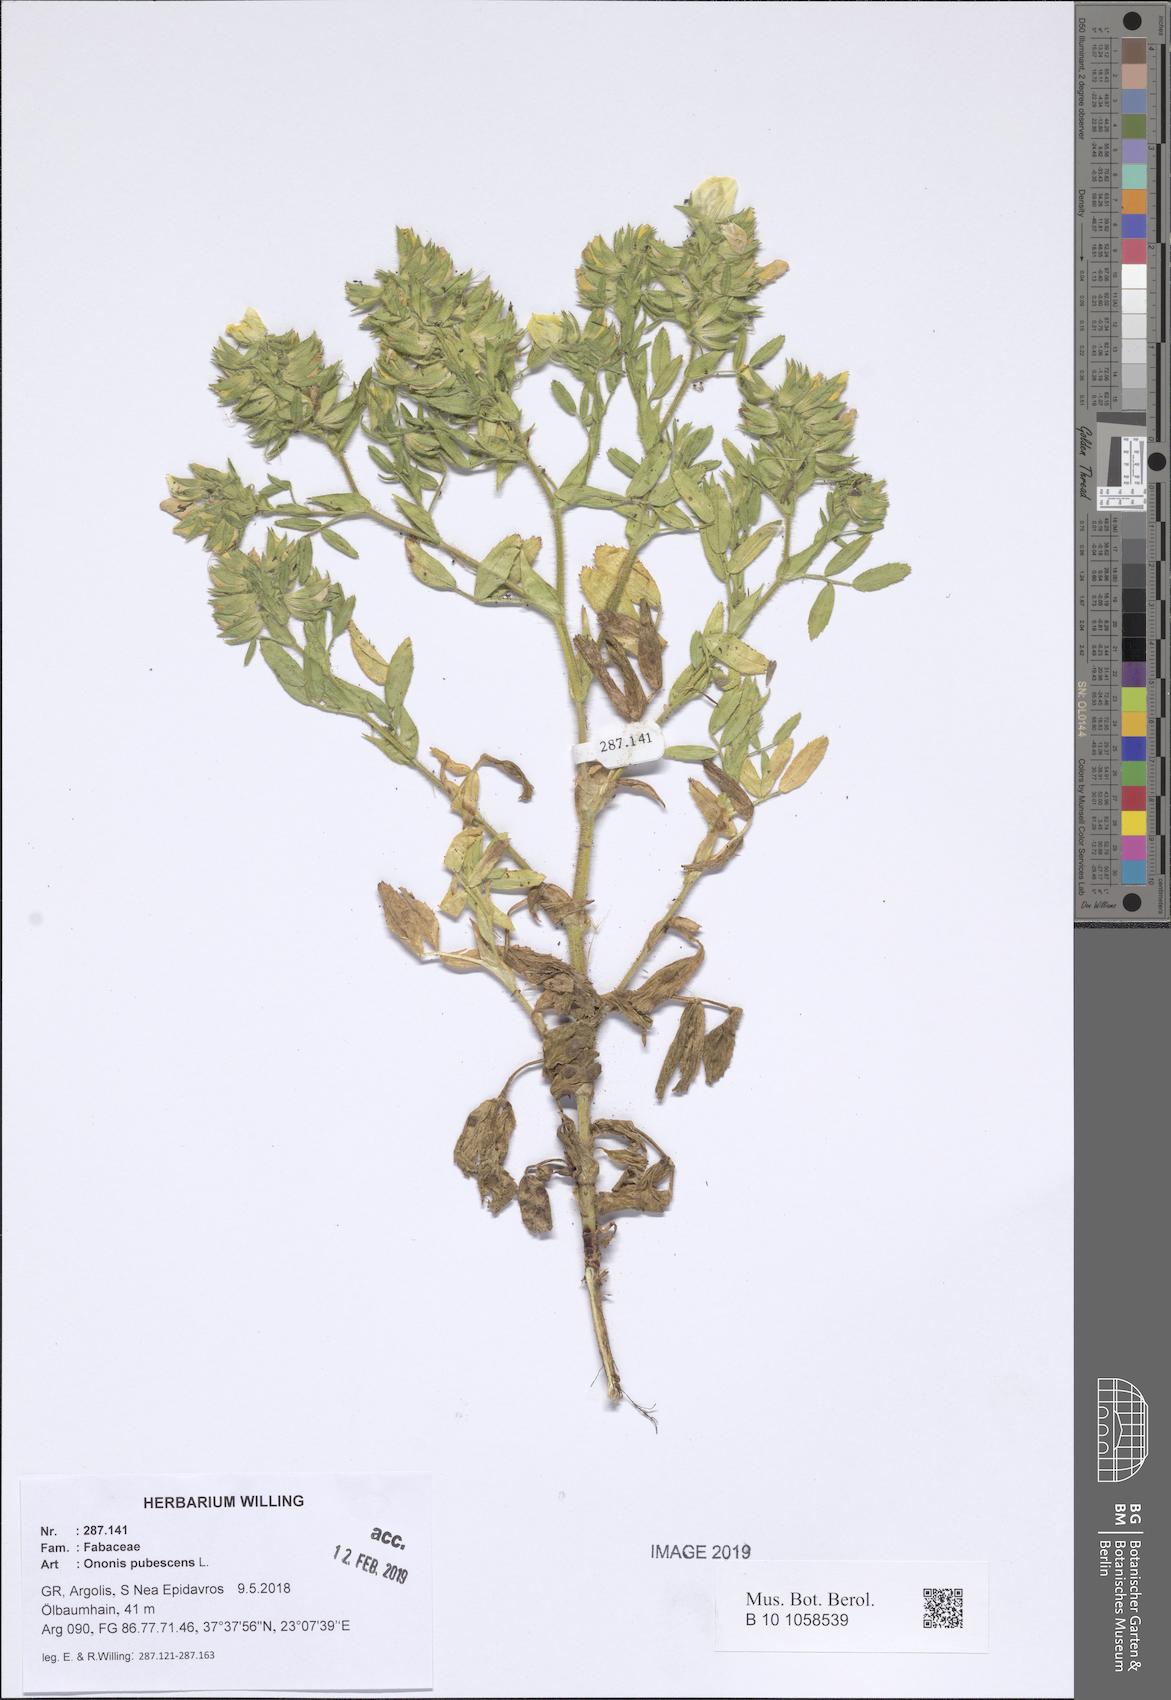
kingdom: Plantae
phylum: Tracheophyta
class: Magnoliopsida
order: Fabales
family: Fabaceae
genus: Ononis
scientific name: Ononis pubescens
